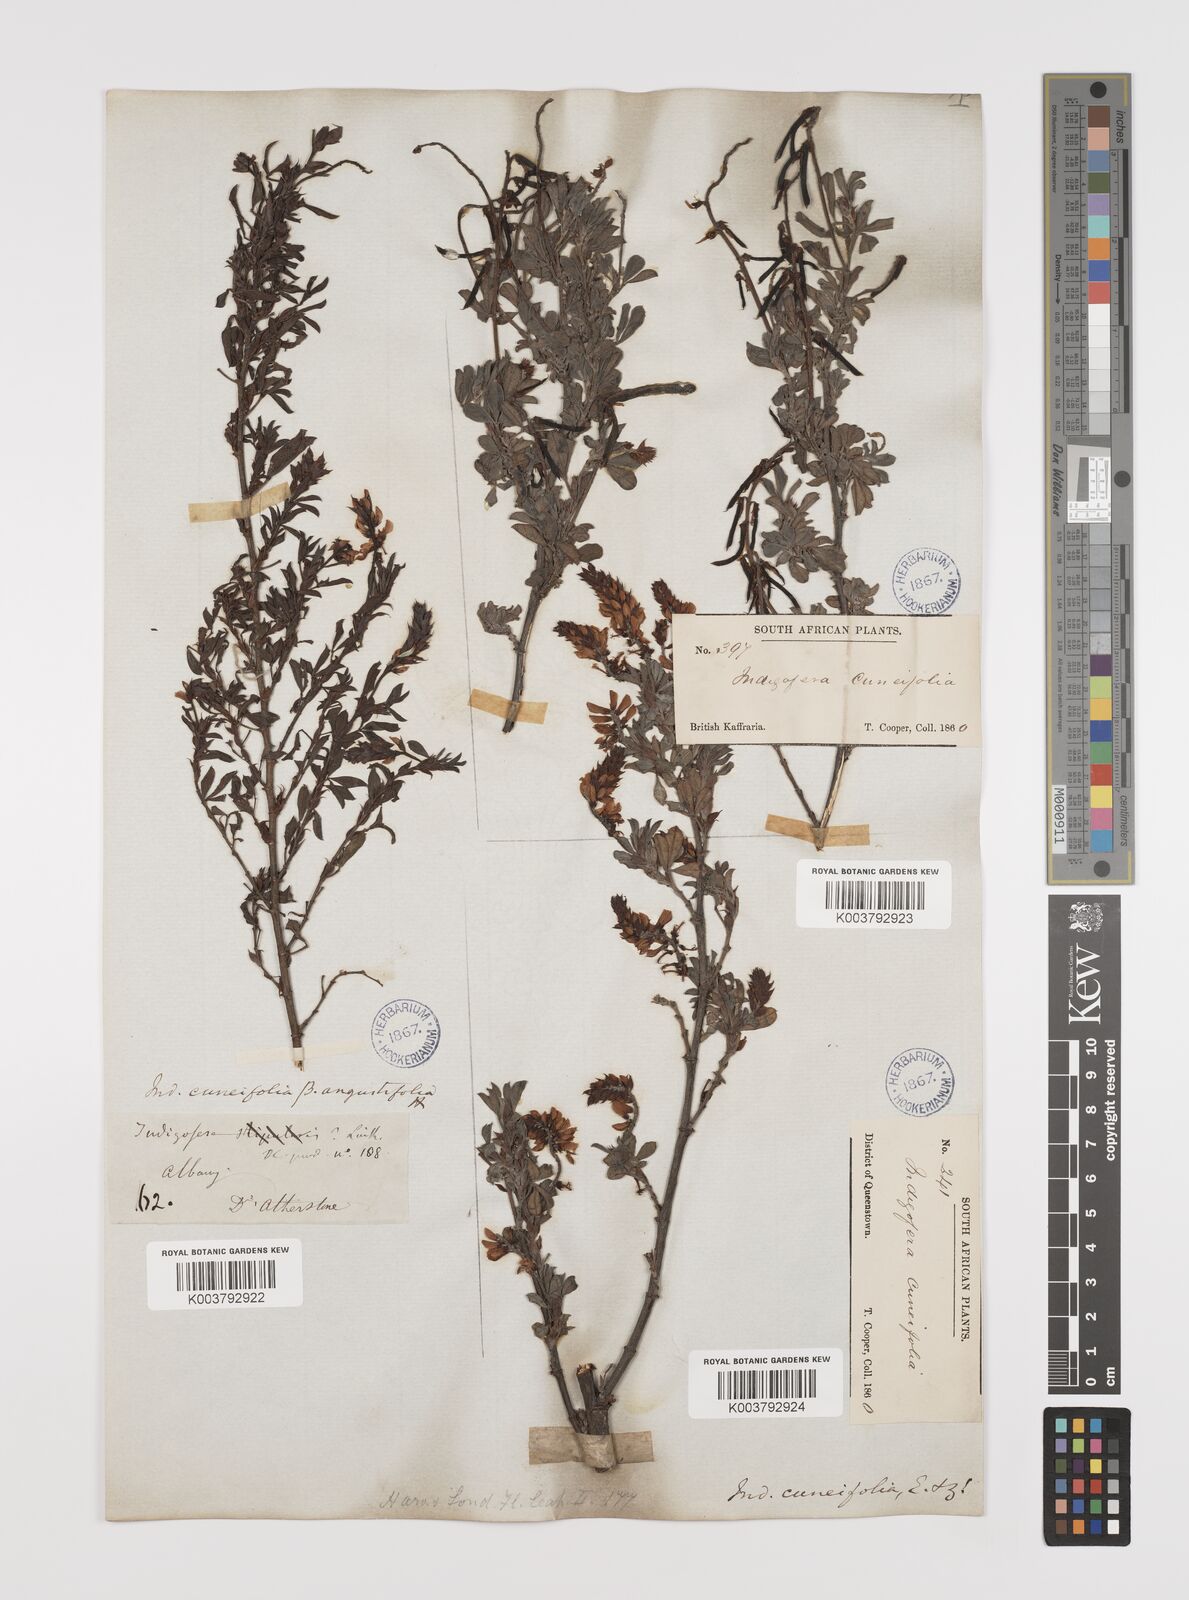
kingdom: Plantae
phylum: Tracheophyta
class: Magnoliopsida
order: Fabales
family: Fabaceae
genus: Indigofera
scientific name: Indigofera cuneifolia
